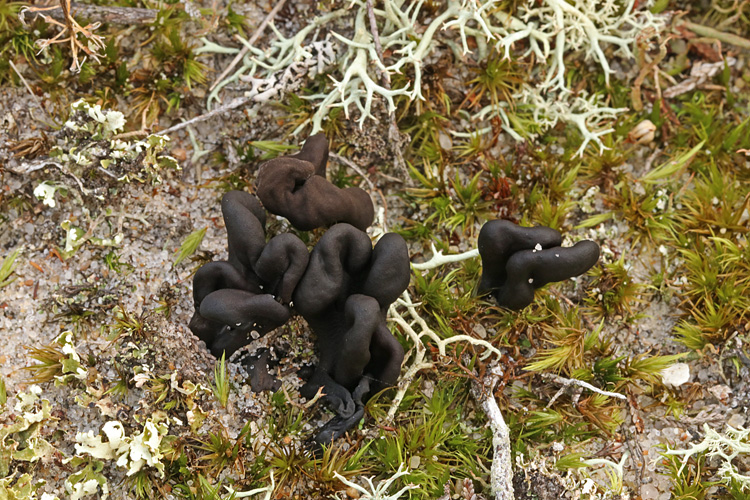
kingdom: Fungi
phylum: Ascomycota
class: Geoglossomycetes
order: Geoglossales
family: Geoglossaceae
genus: Sabuloglossum
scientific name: Sabuloglossum arenarium
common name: klit-jordtunge
